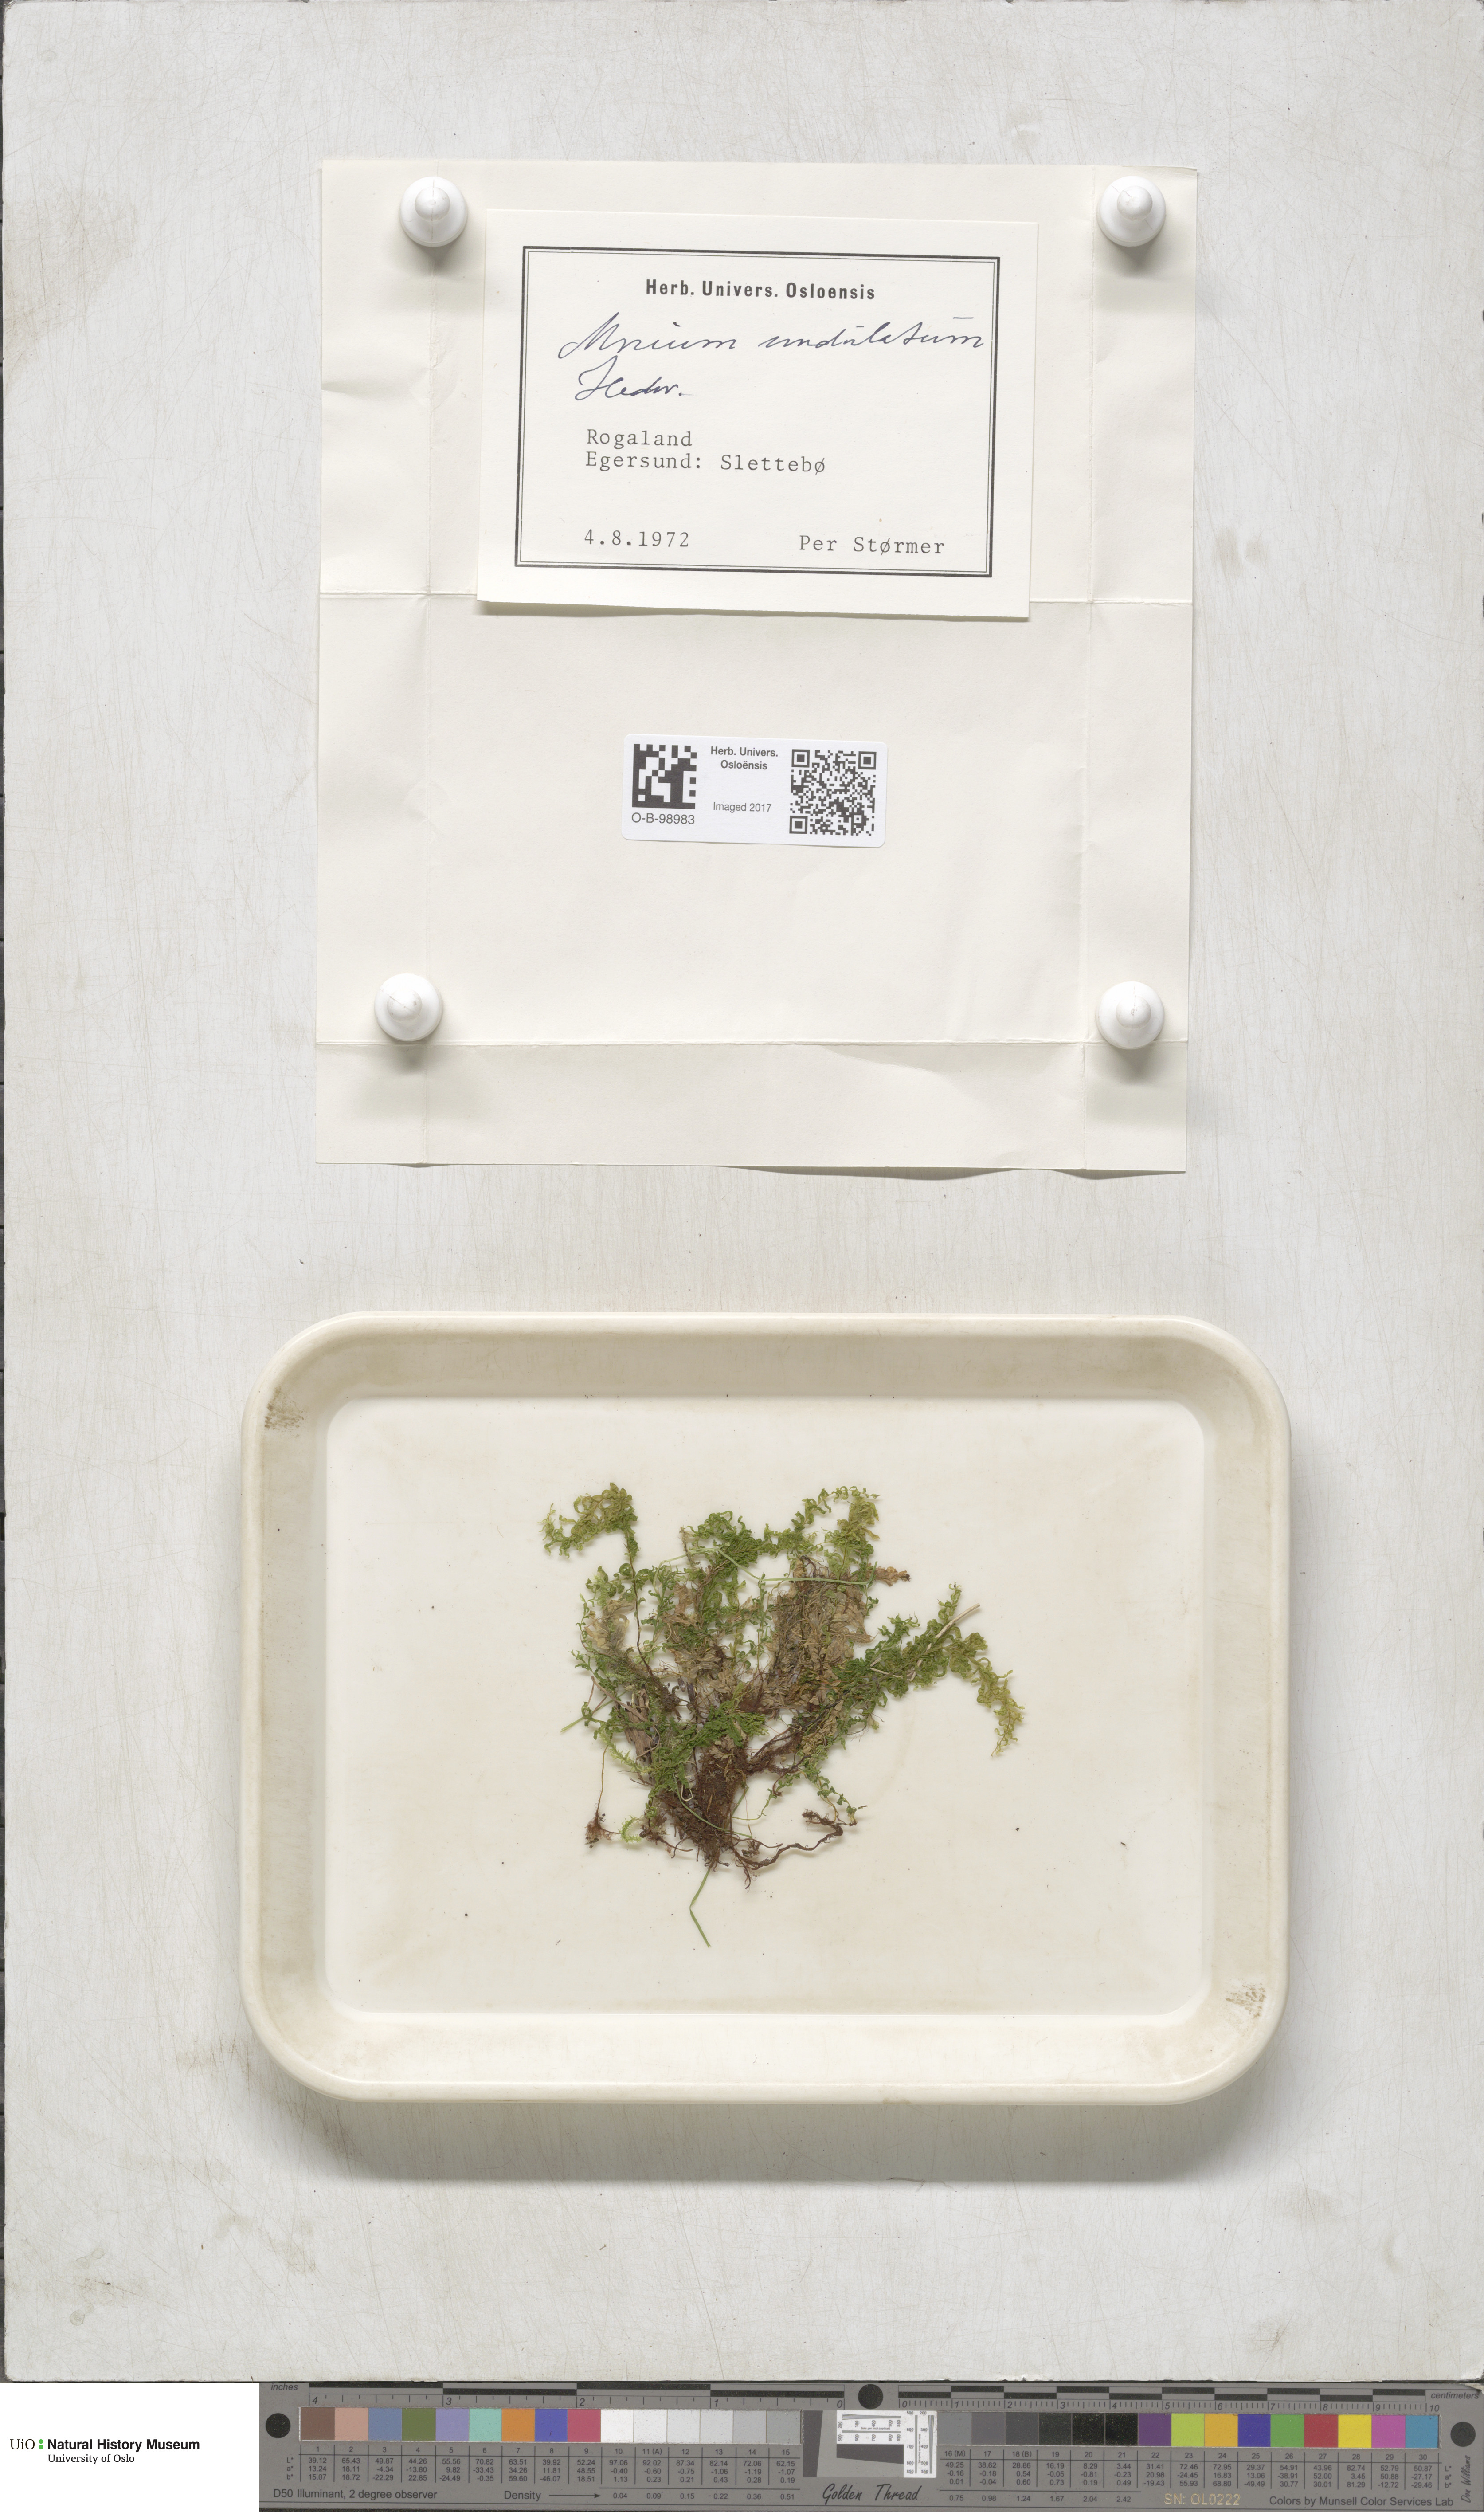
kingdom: Plantae
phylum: Bryophyta
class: Bryopsida
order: Bryales
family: Mniaceae
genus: Plagiomnium
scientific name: Plagiomnium undulatum
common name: Hart's-tongue thyme-moss
